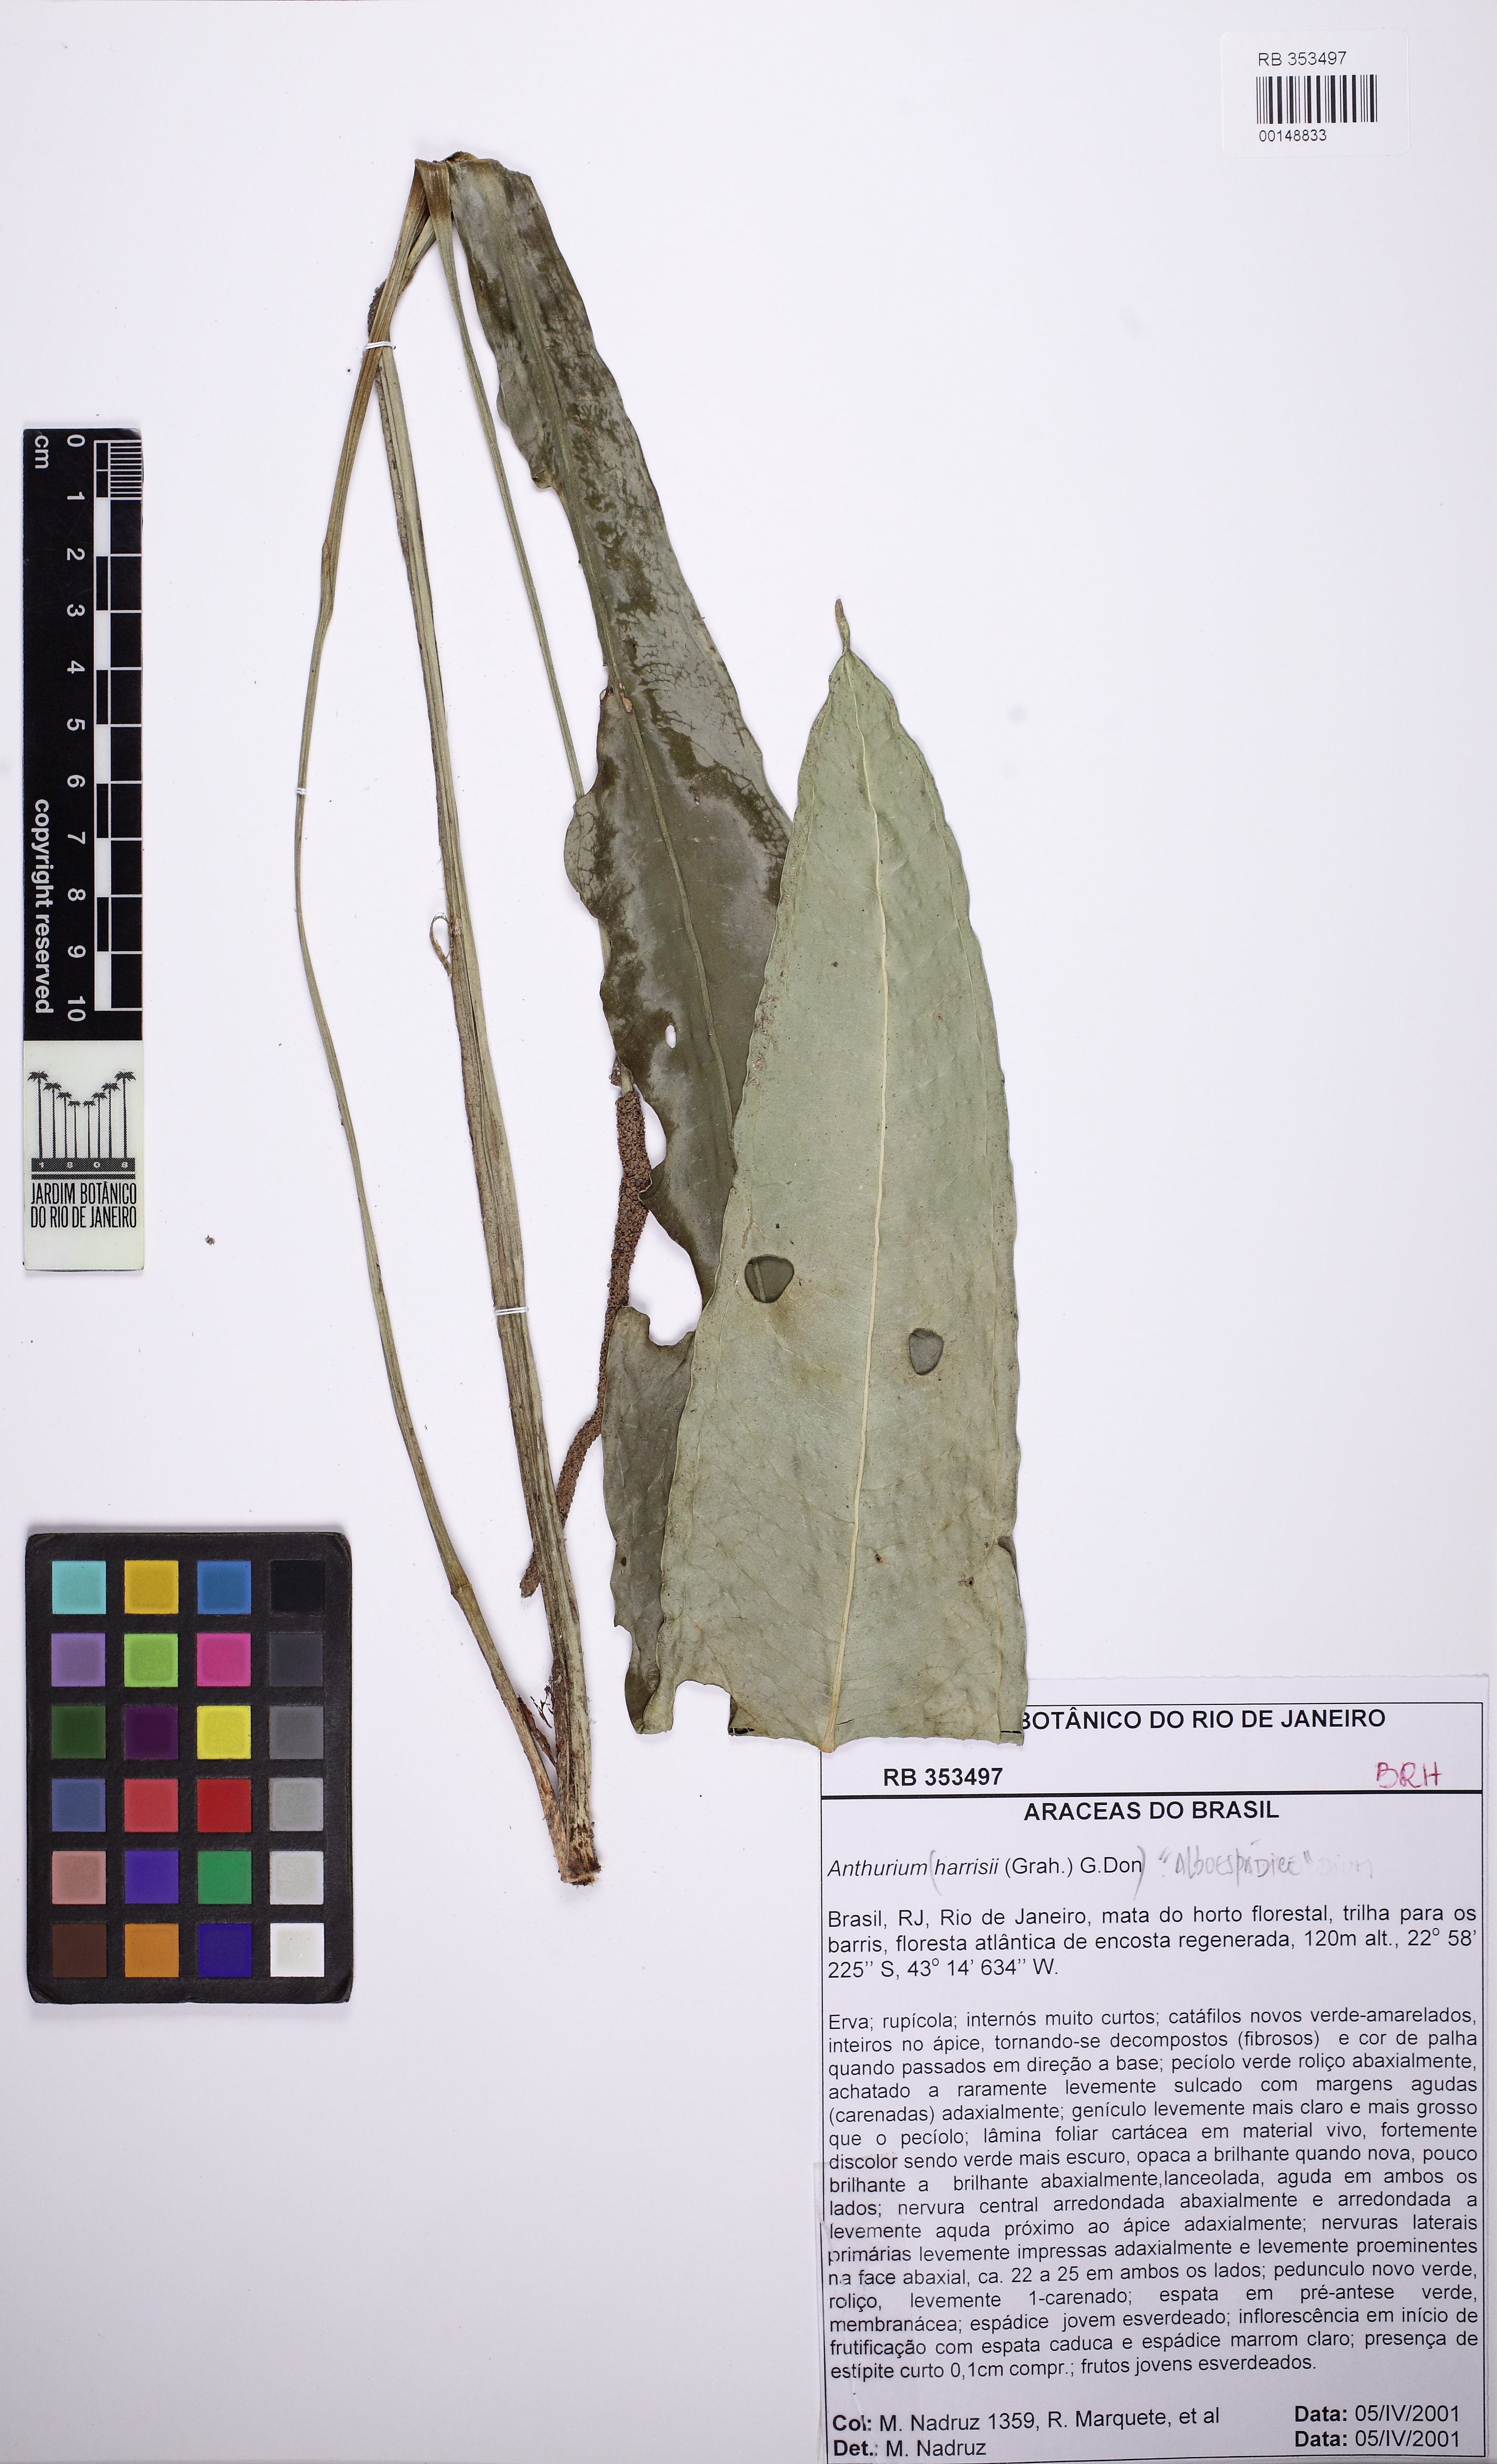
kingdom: Plantae
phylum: Tracheophyta
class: Liliopsida
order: Alismatales
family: Araceae
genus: Anthurium
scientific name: Anthurium comtum
